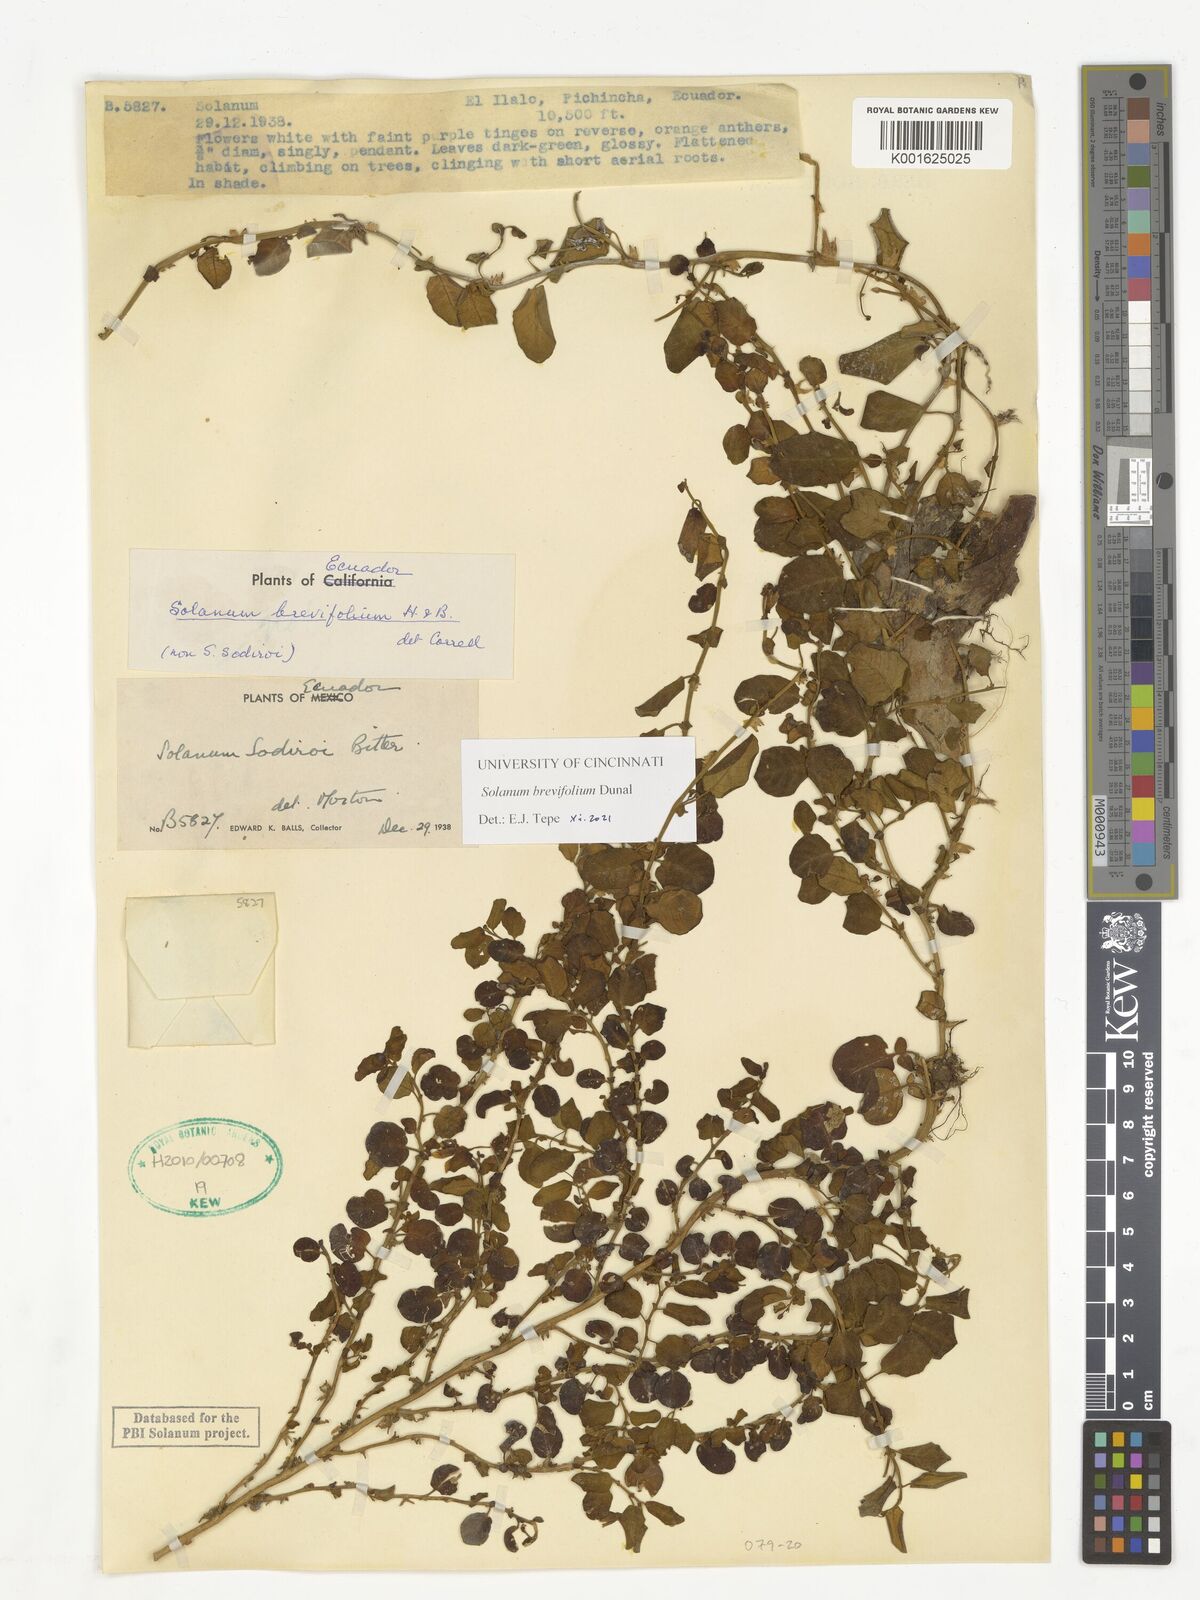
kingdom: Plantae
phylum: Tracheophyta
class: Magnoliopsida
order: Solanales
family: Solanaceae
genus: Solanum
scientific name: Solanum brevifolium
